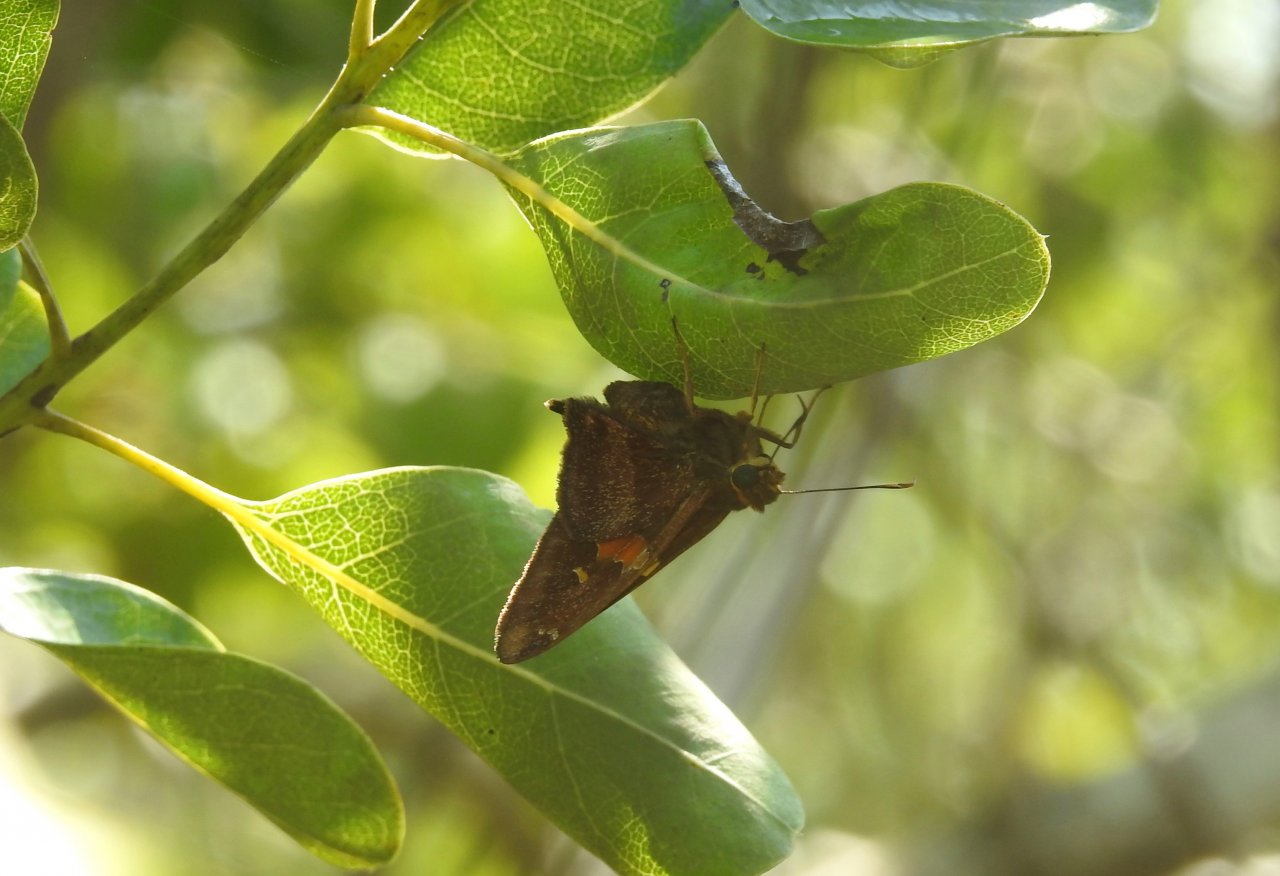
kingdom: Animalia
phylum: Arthropoda
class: Insecta
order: Lepidoptera
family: Hesperiidae
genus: Epargyreus
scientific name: Epargyreus zestos
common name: Zestos Skipper
